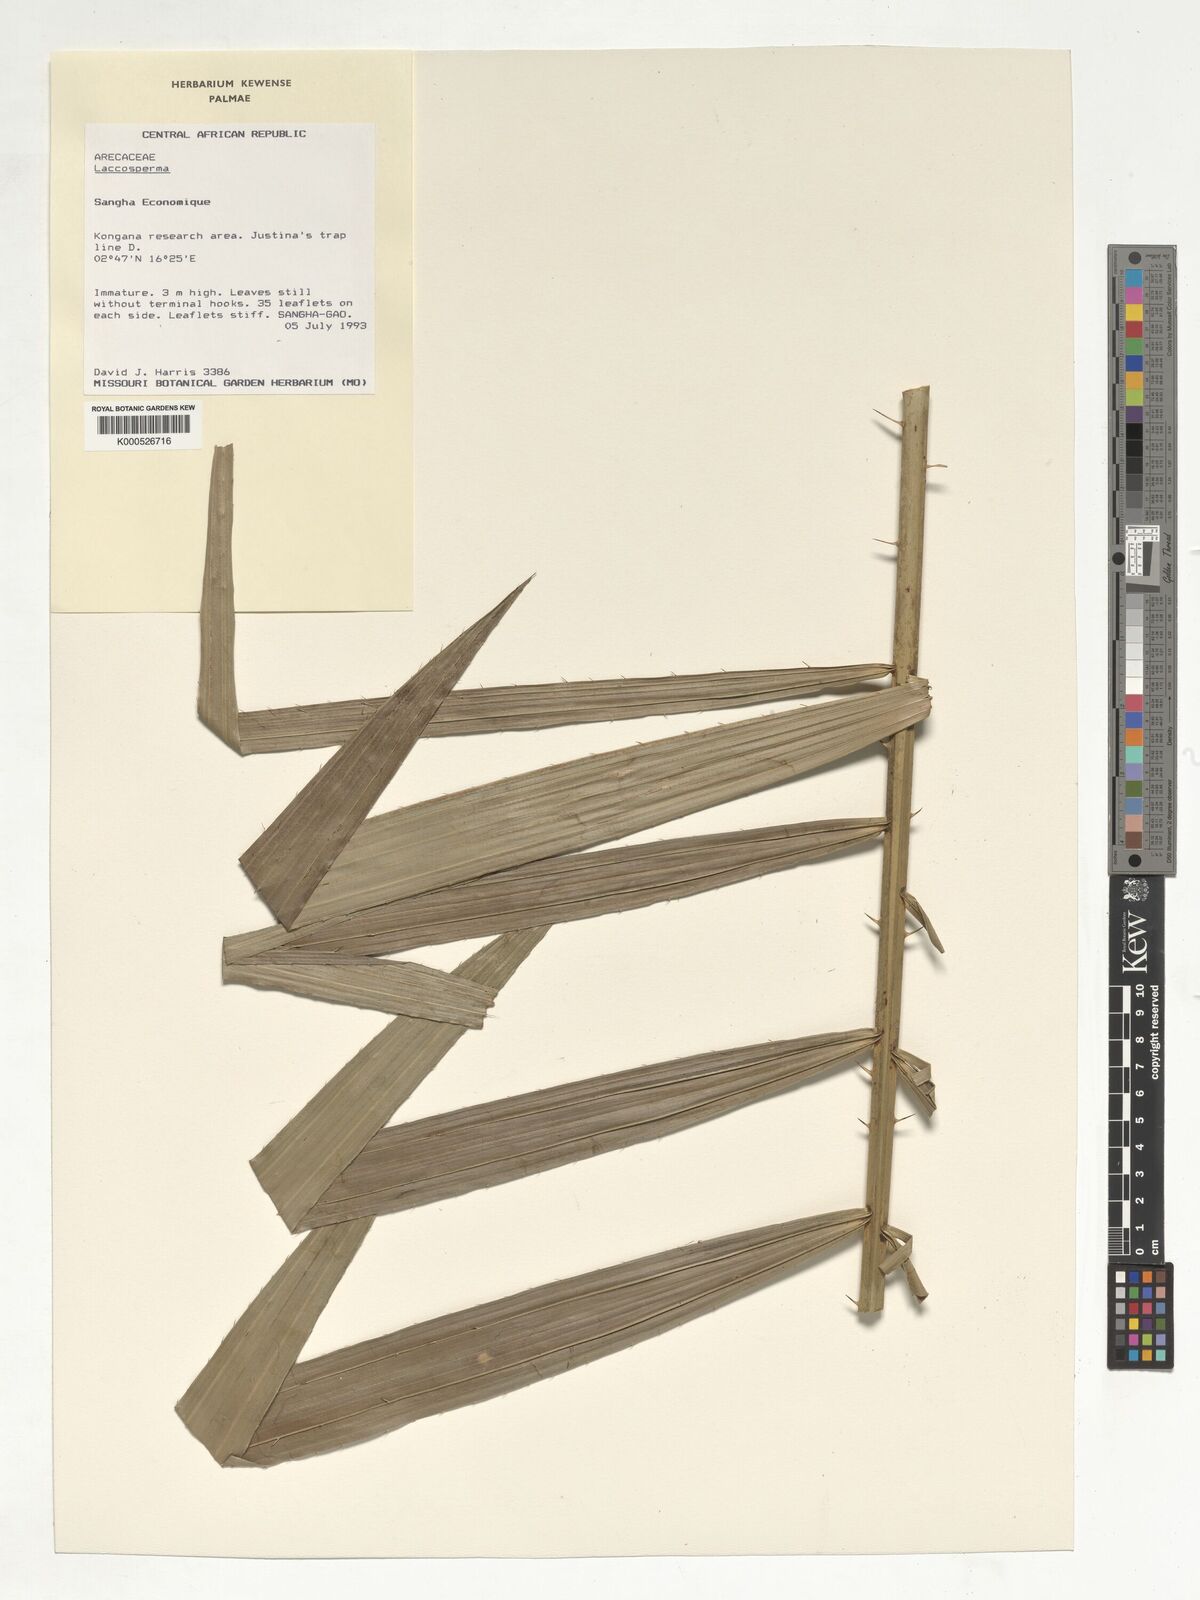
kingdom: Plantae
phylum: Tracheophyta
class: Liliopsida
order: Arecales
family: Arecaceae
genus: Laccosperma
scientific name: Laccosperma
